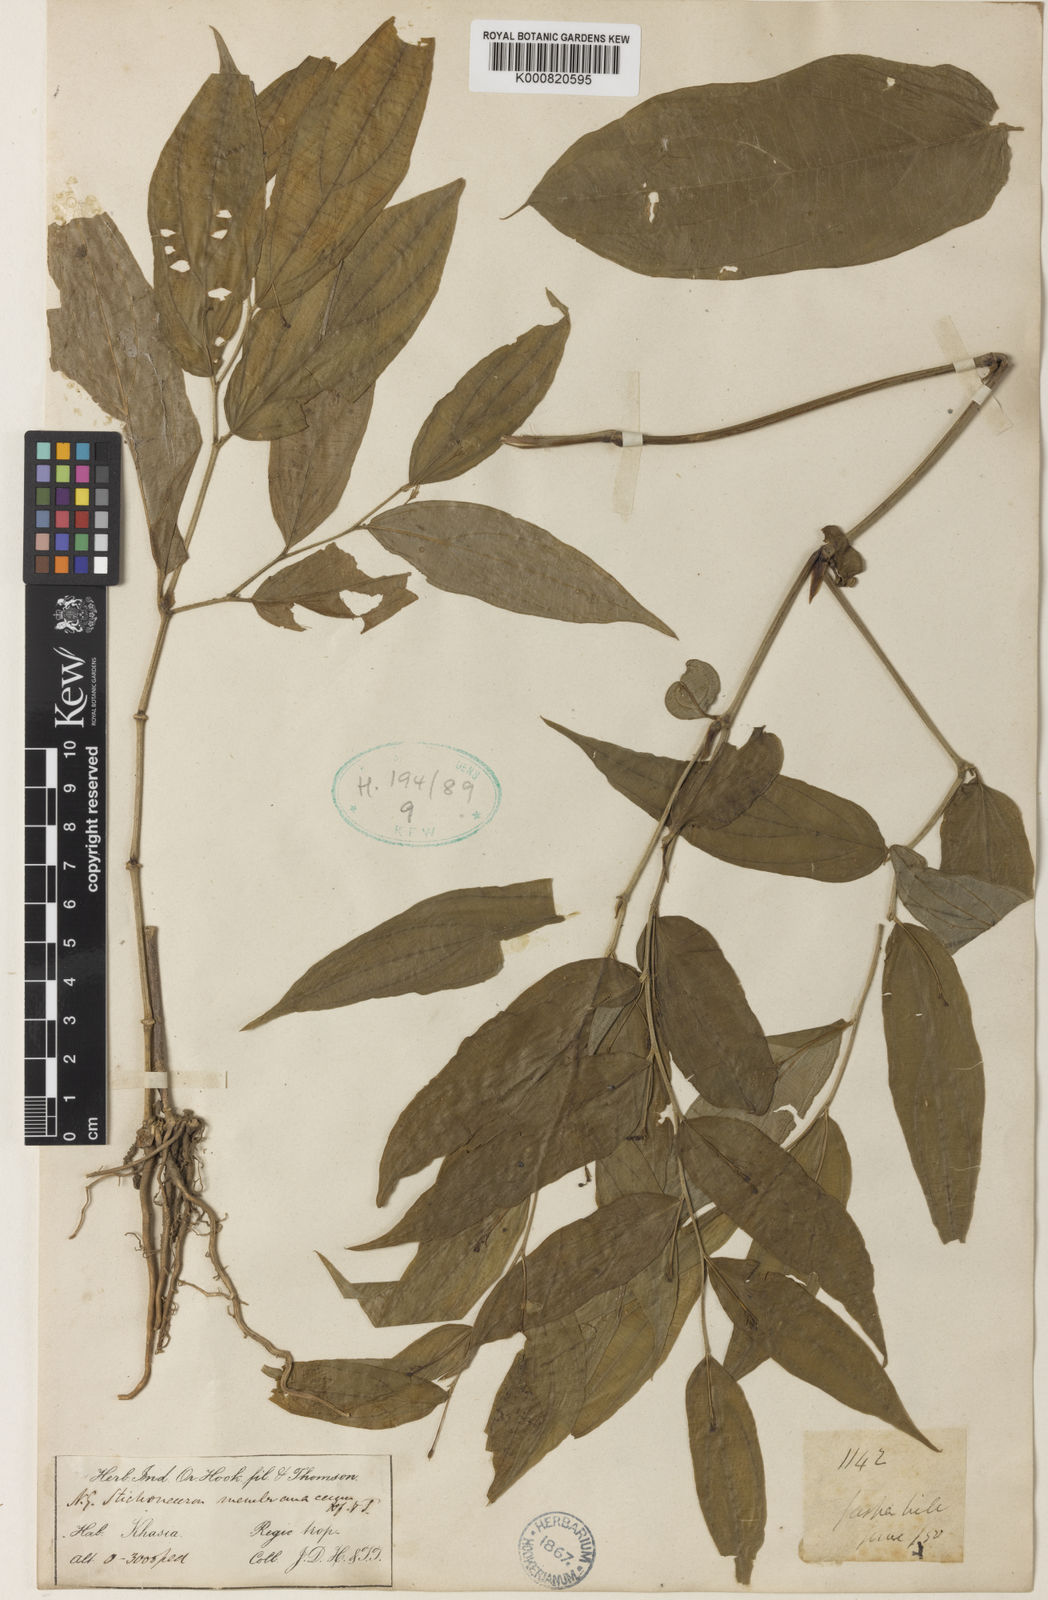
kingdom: Plantae
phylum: Tracheophyta
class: Liliopsida
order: Pandanales
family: Stemonaceae
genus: Stichoneuron
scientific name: Stichoneuron membranaceum
